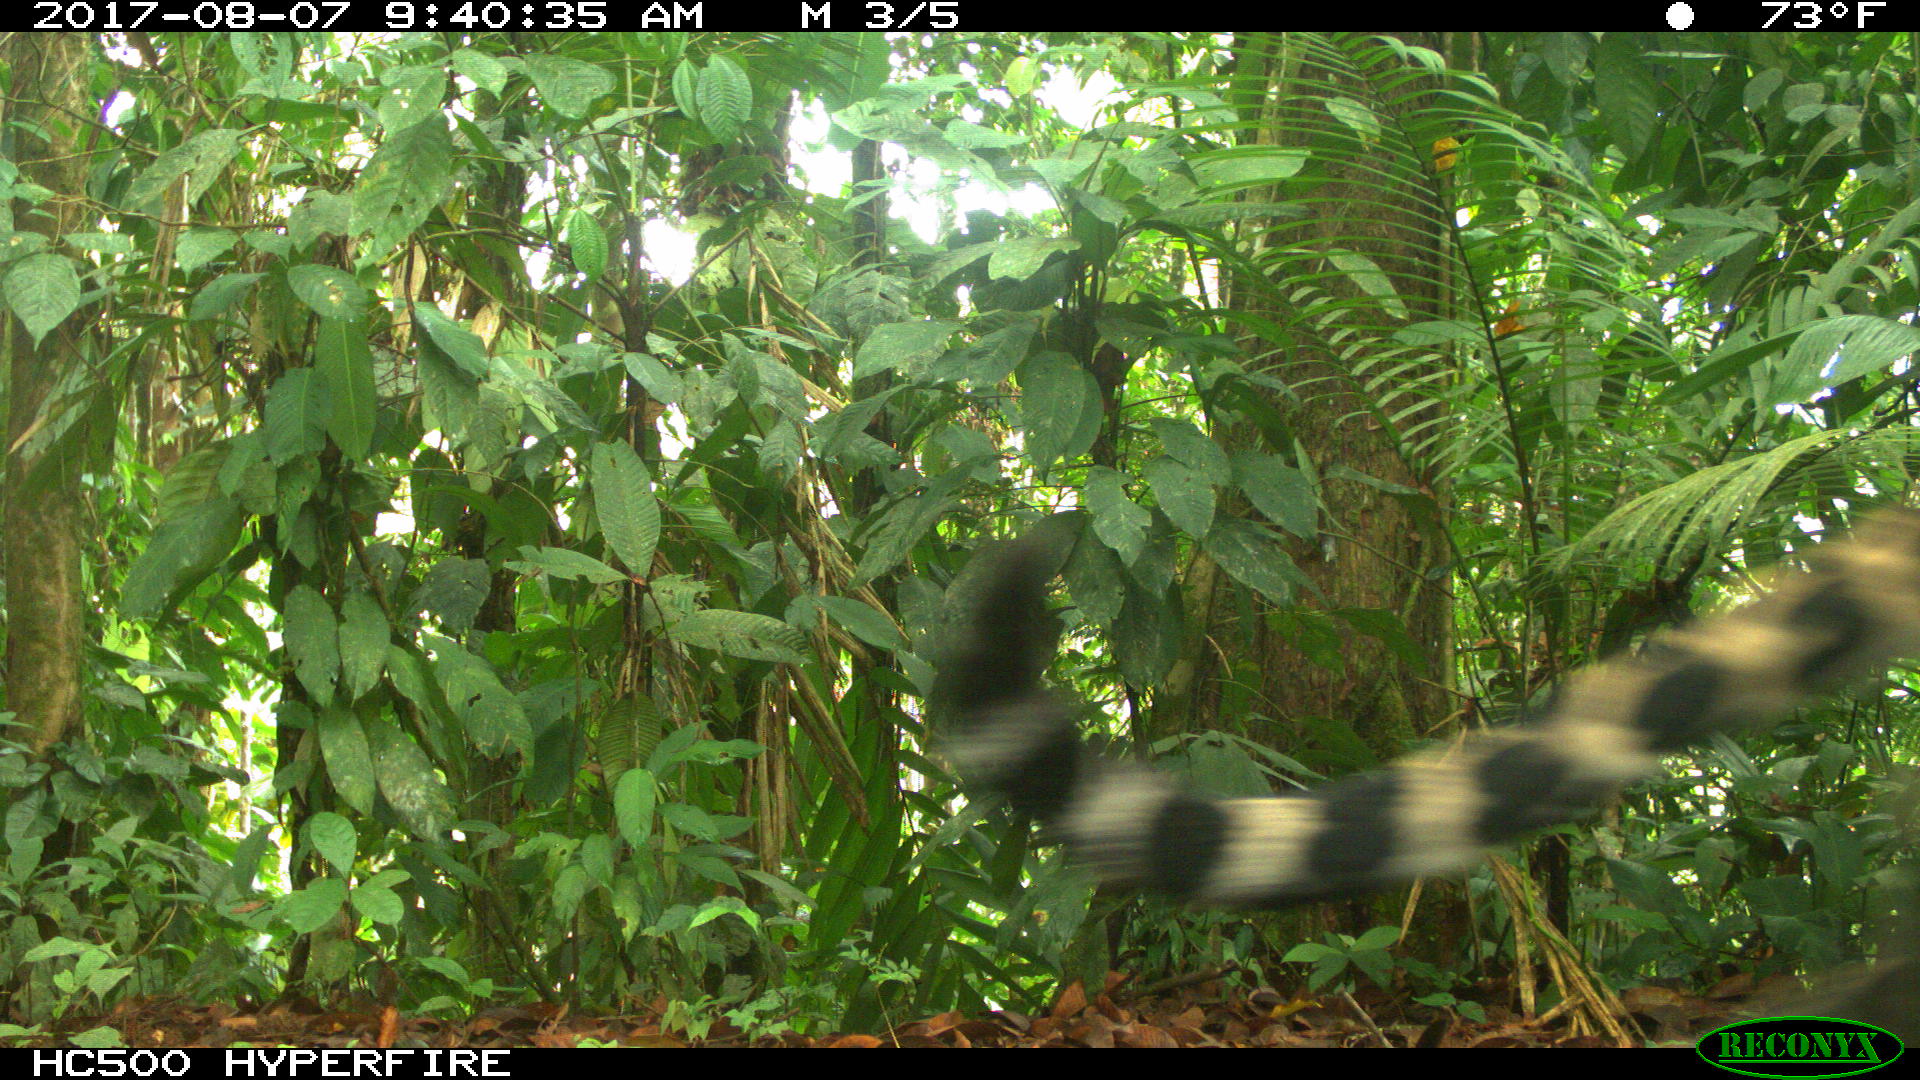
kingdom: Animalia
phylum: Chordata
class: Mammalia
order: Carnivora
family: Felidae
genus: Panthera
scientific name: Panthera onca
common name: Jaguar
